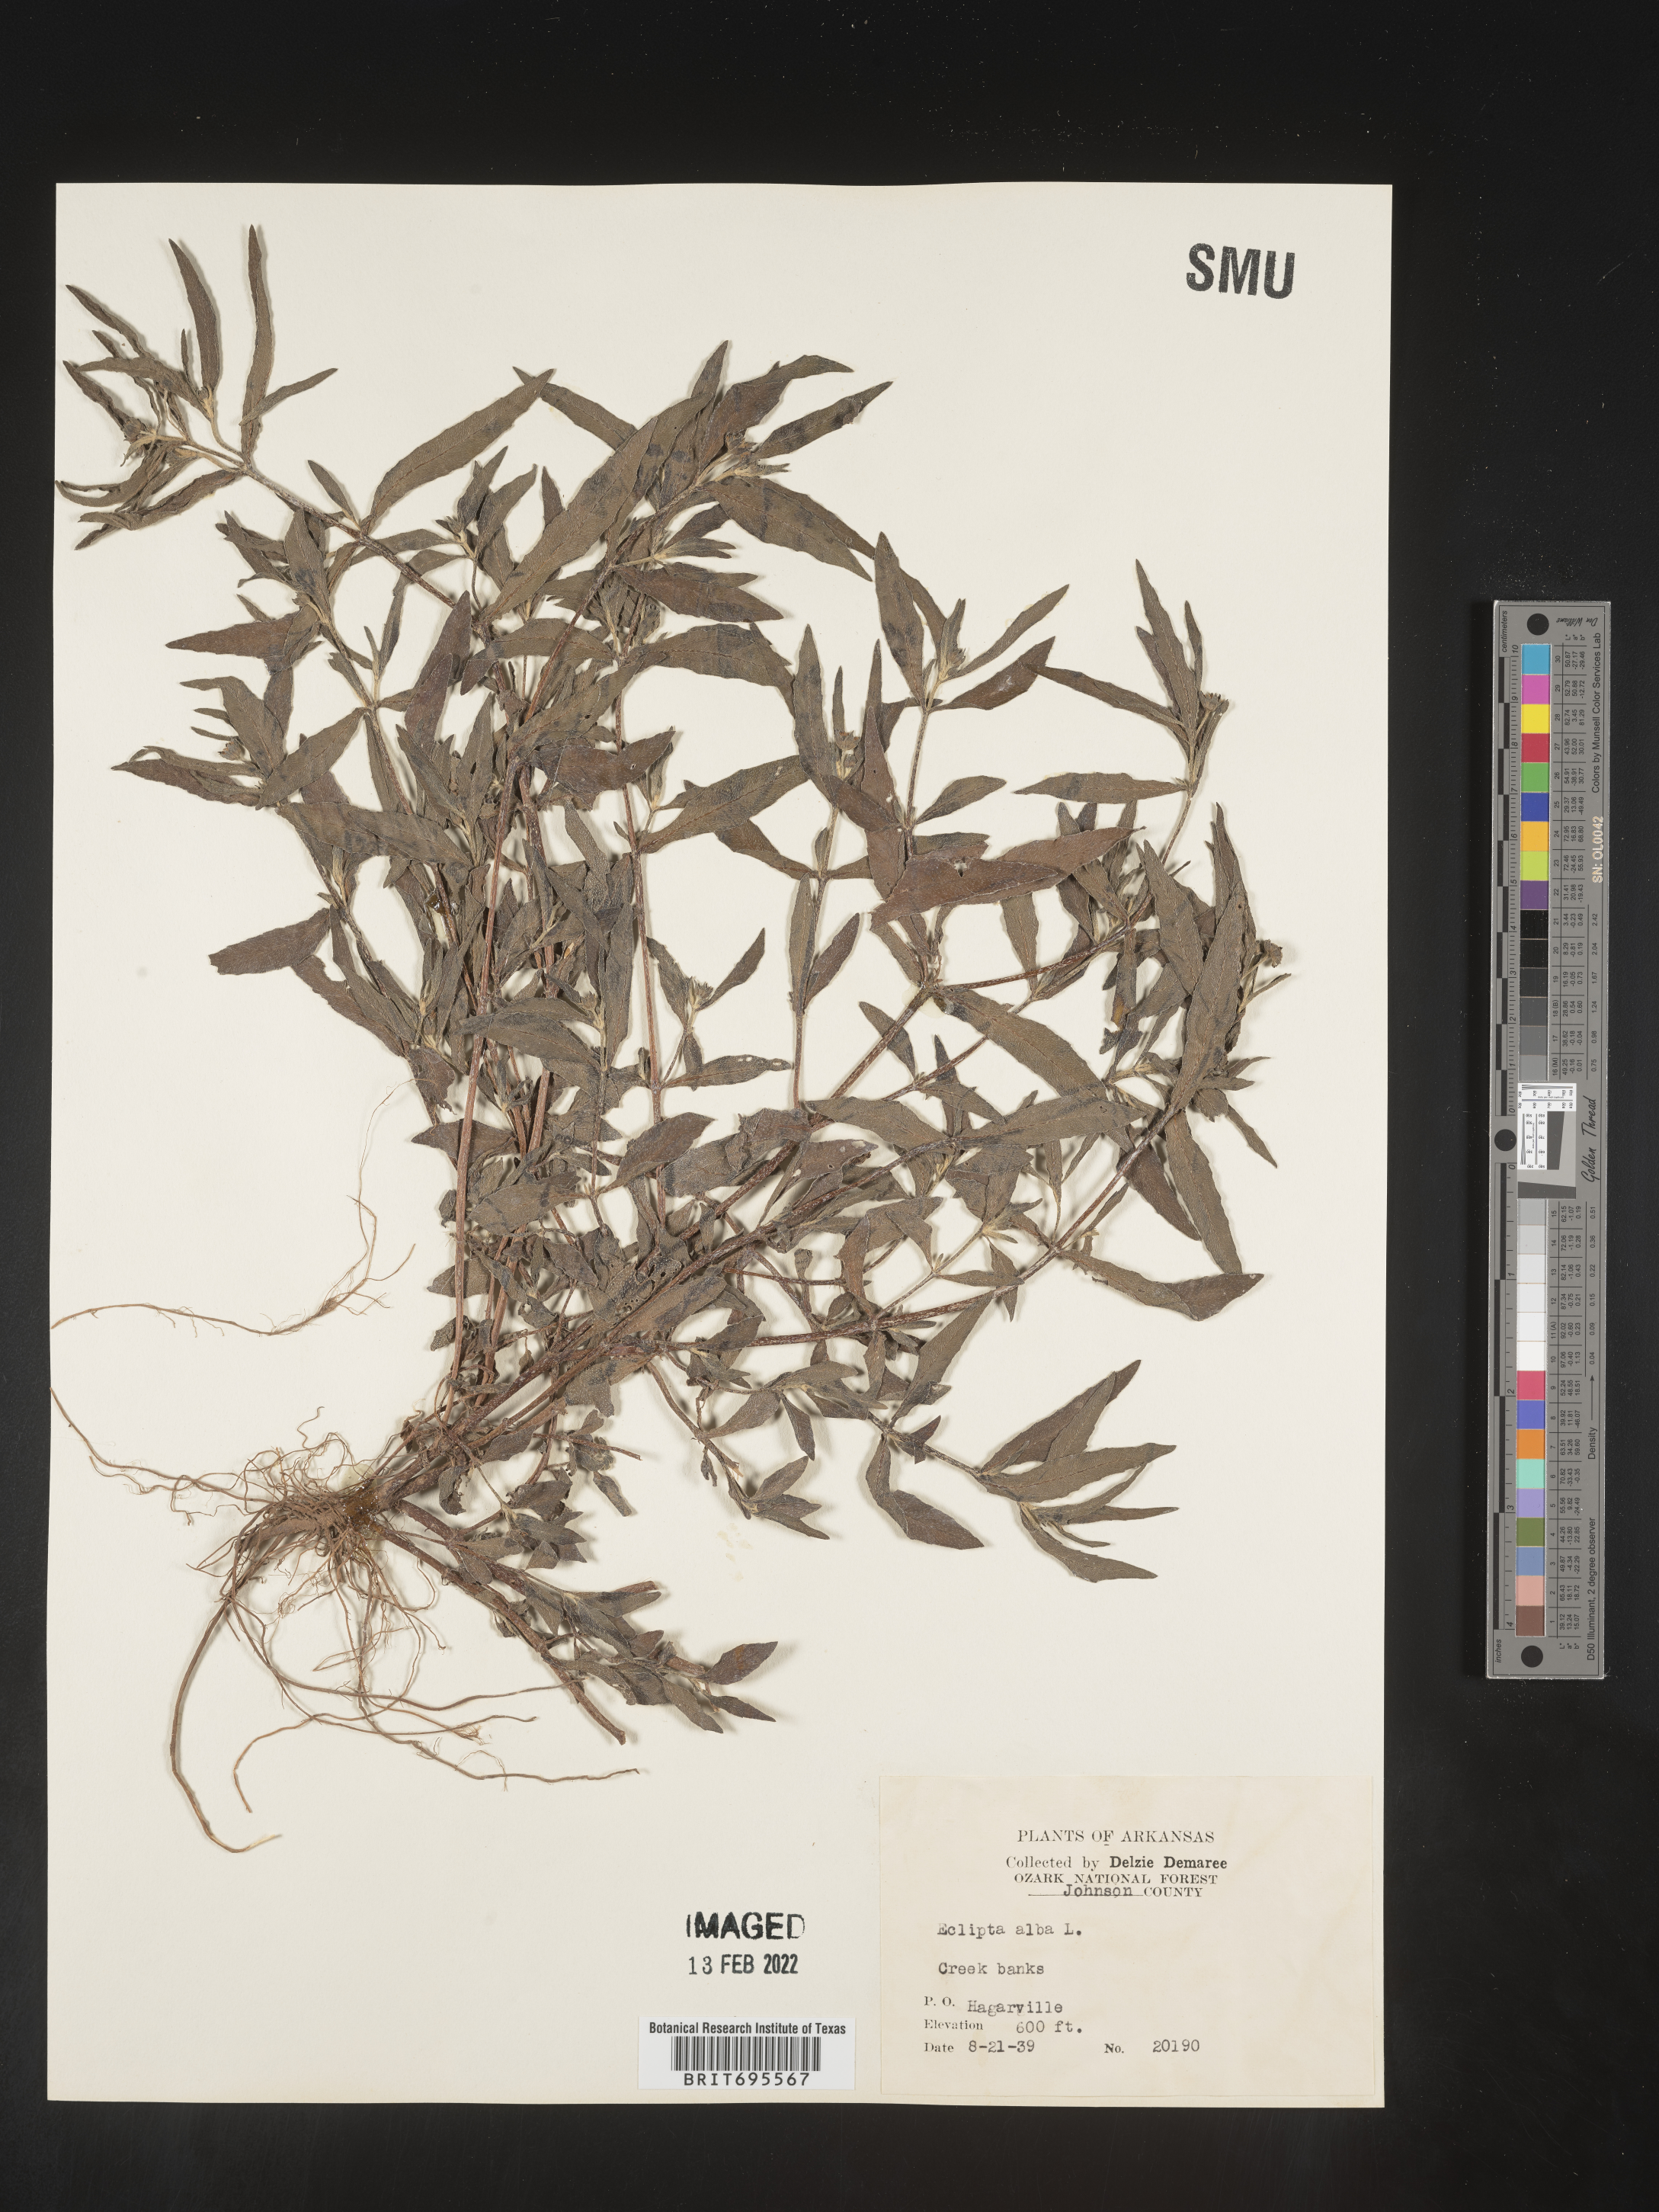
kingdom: Plantae
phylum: Tracheophyta
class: Magnoliopsida
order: Asterales
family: Asteraceae
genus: Eclipta
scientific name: Eclipta alba
